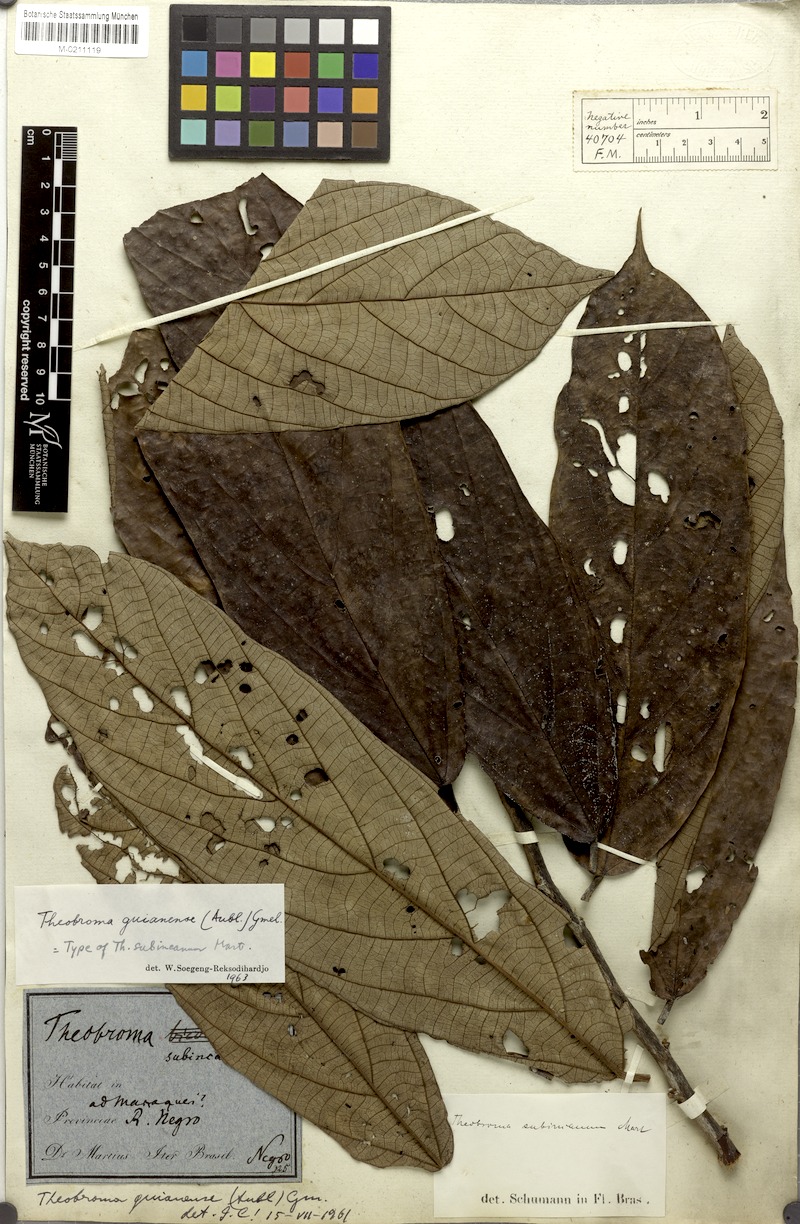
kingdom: Plantae
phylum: Tracheophyta
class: Magnoliopsida
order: Malvales
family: Malvaceae
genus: Theobroma
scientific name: Theobroma subincanum
